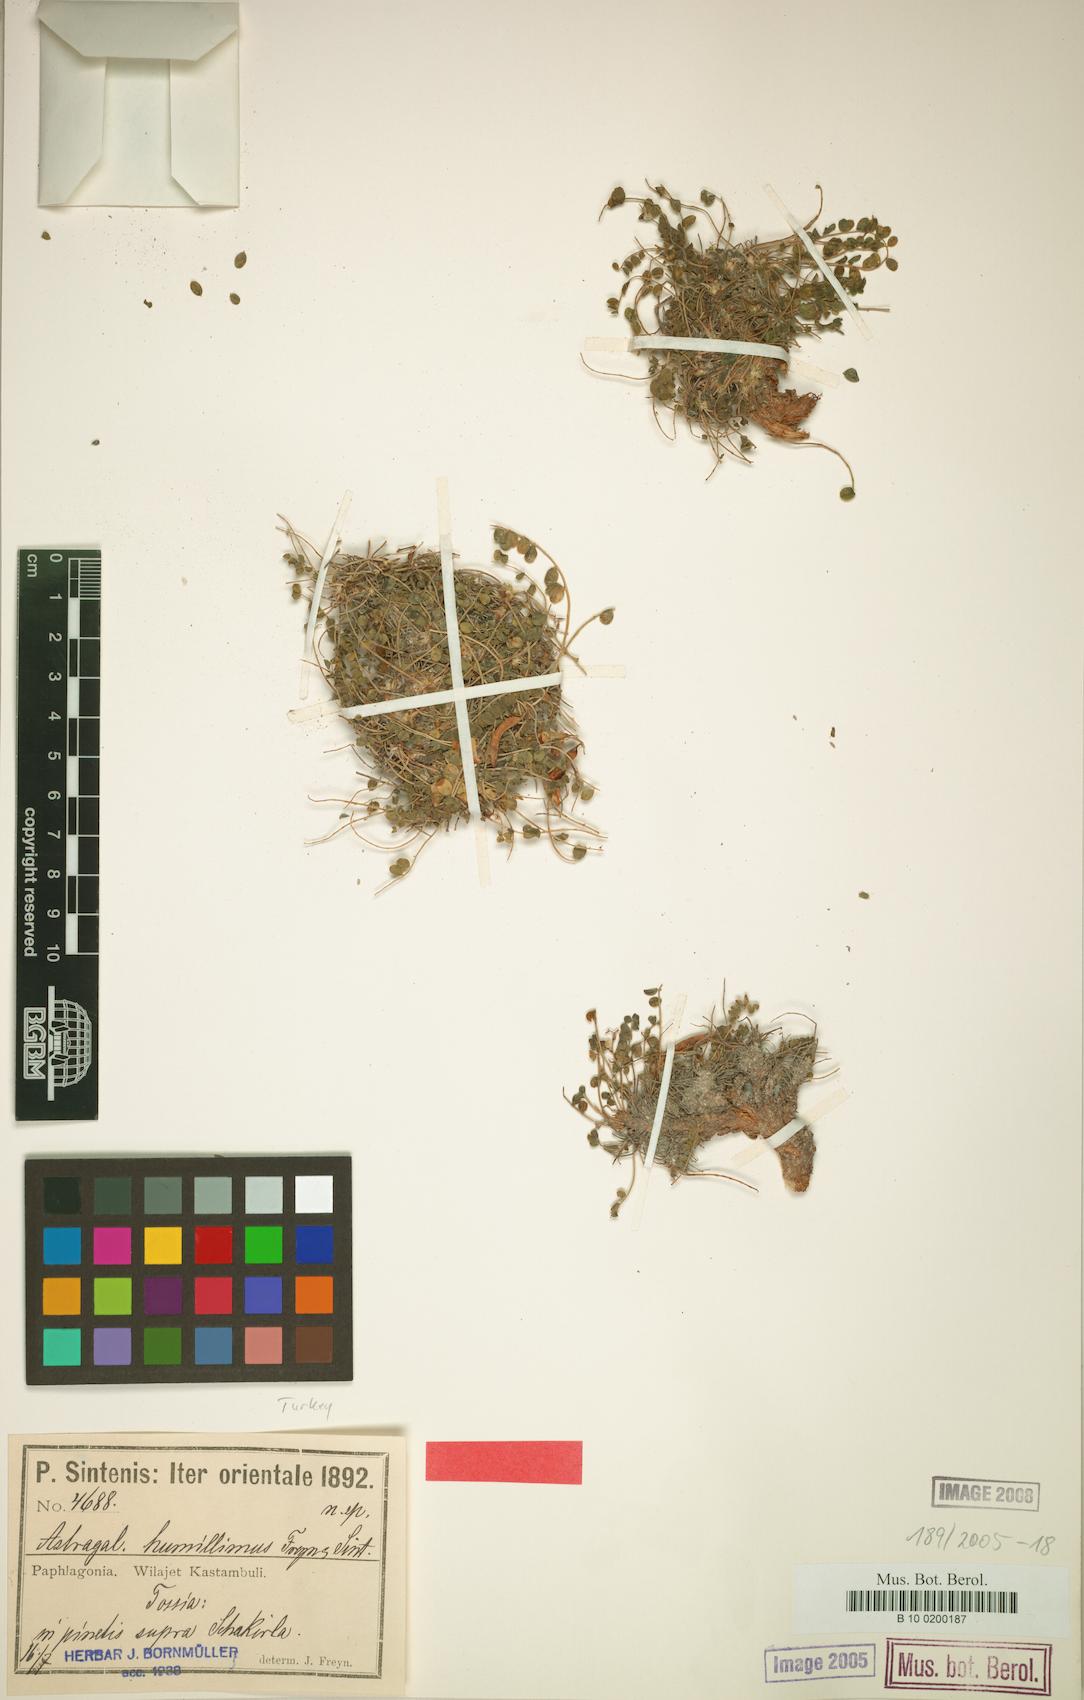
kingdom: Plantae
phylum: Tracheophyta
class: Magnoliopsida
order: Fabales
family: Fabaceae
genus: Astragalus
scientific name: Astragalus humillimus
